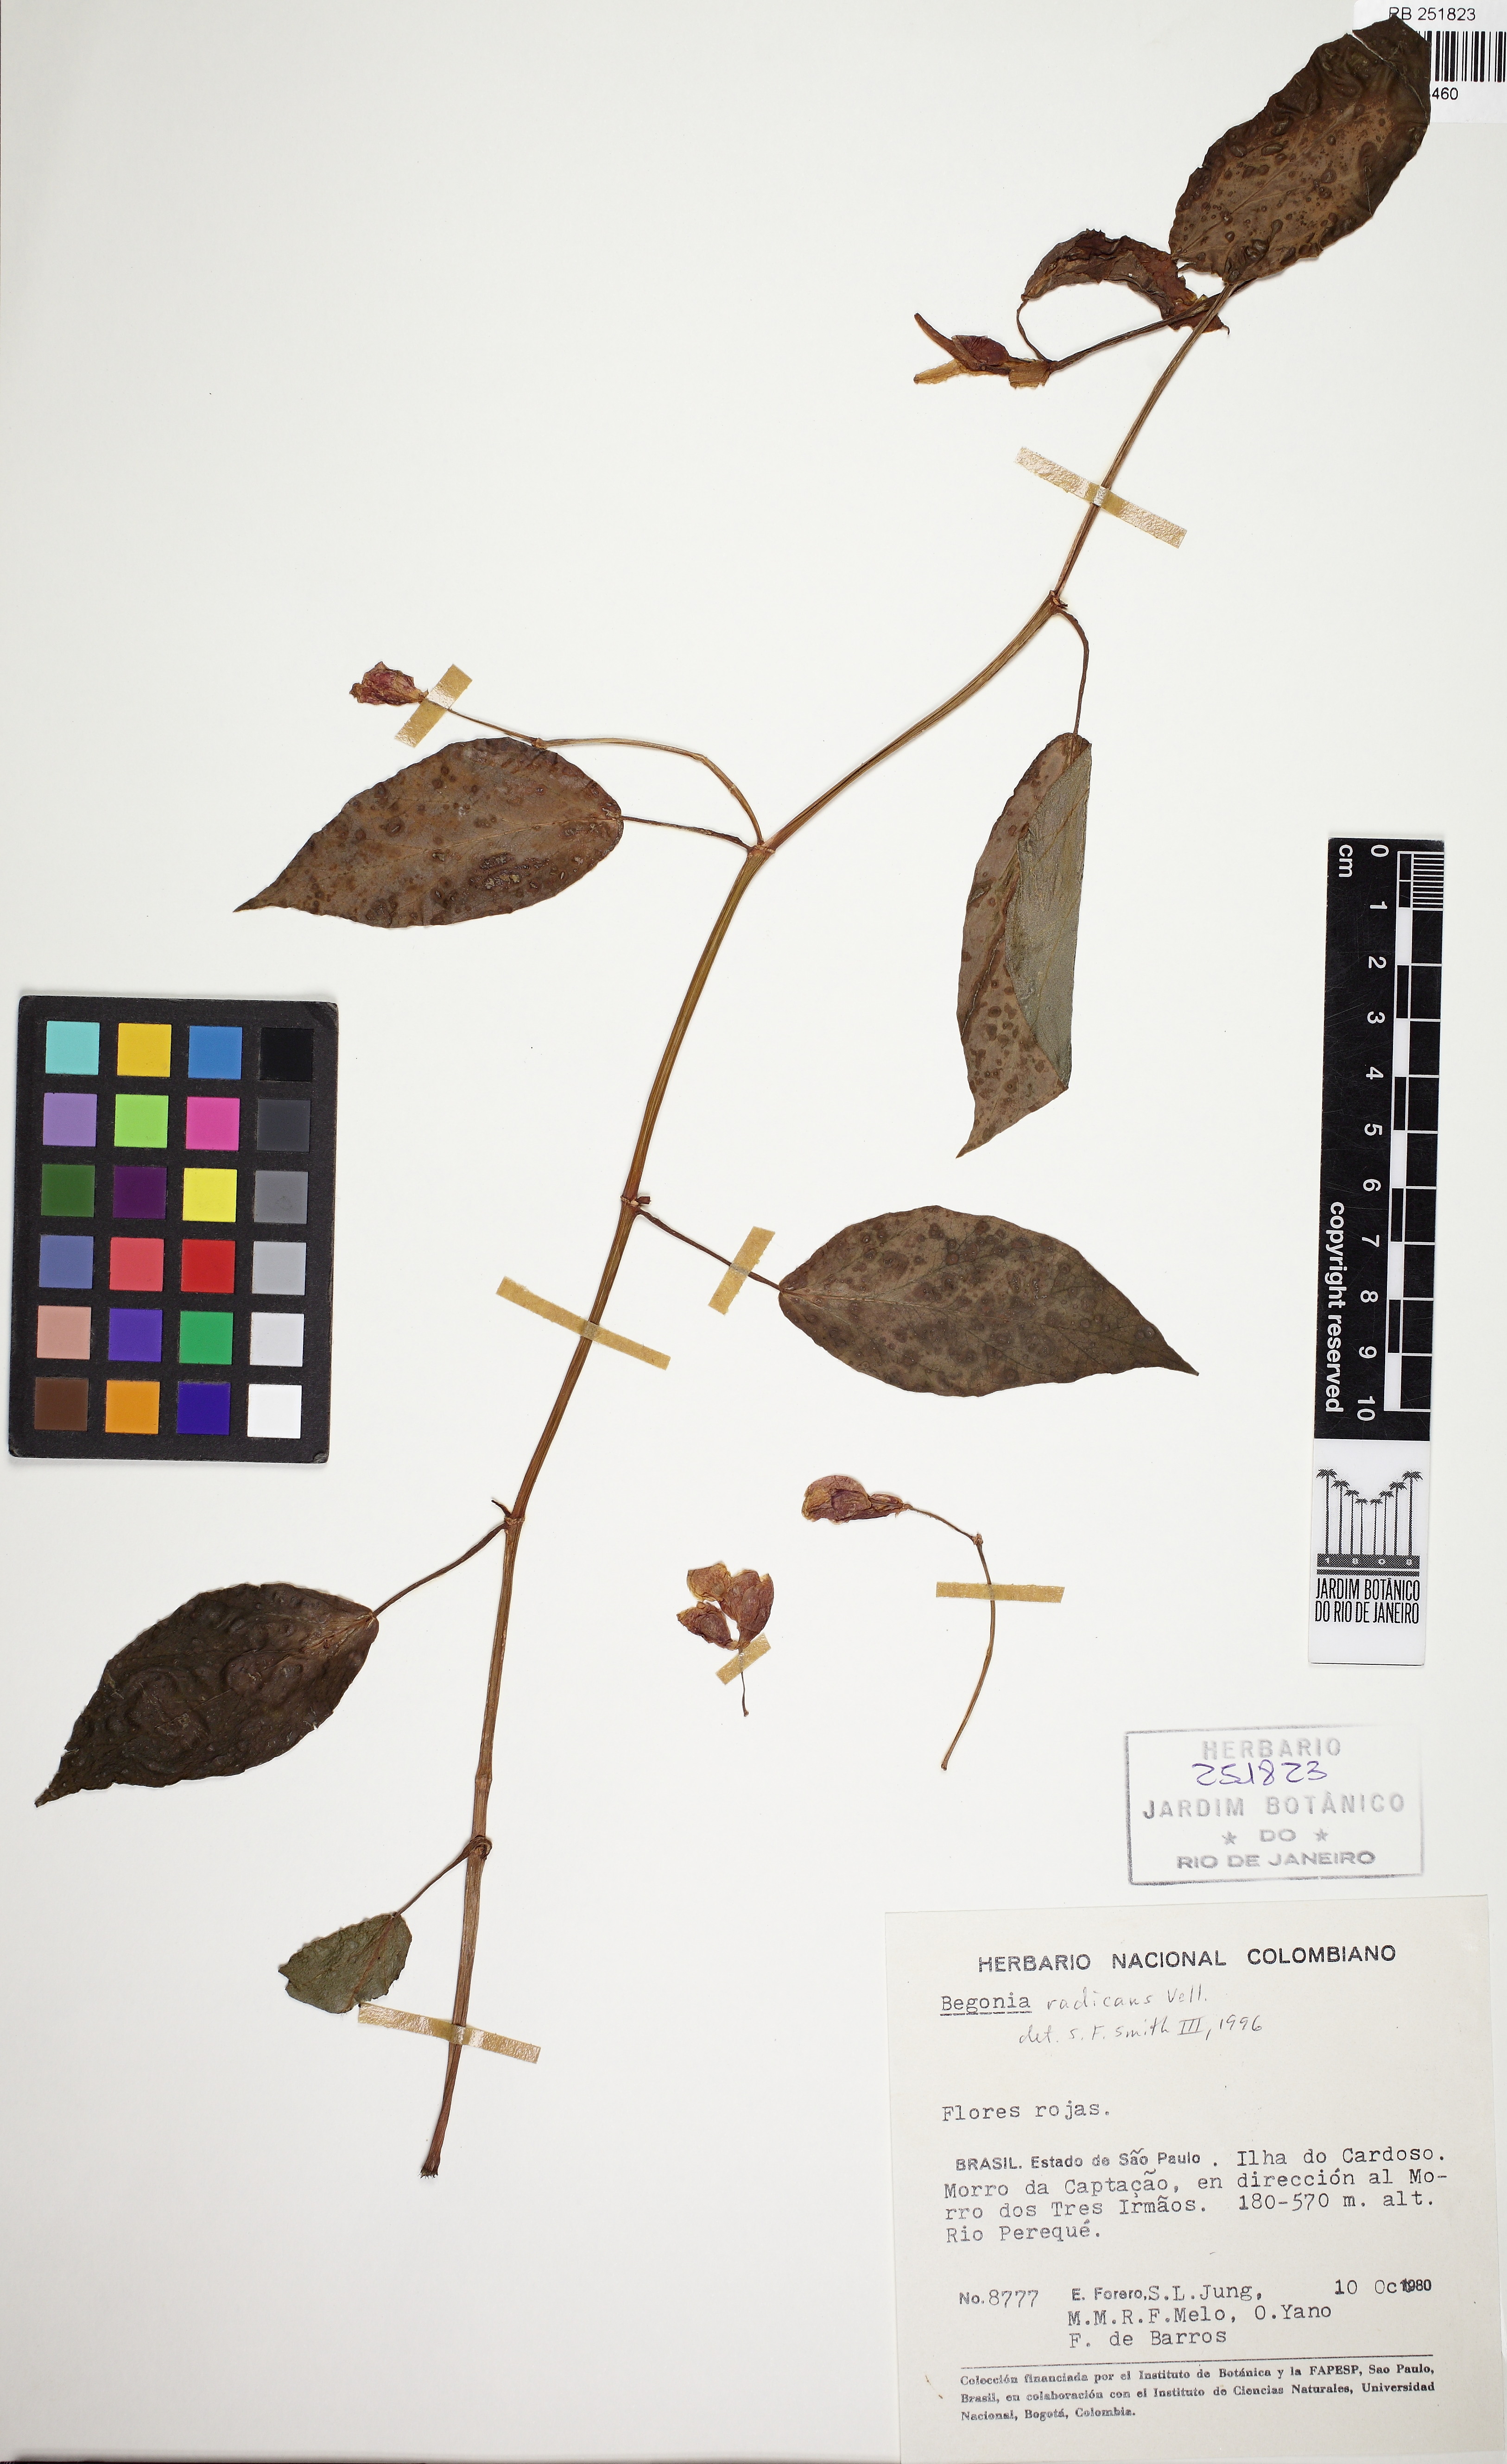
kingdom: Plantae
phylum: Tracheophyta
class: Magnoliopsida
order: Cucurbitales
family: Begoniaceae
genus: Begonia
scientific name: Begonia radicans
